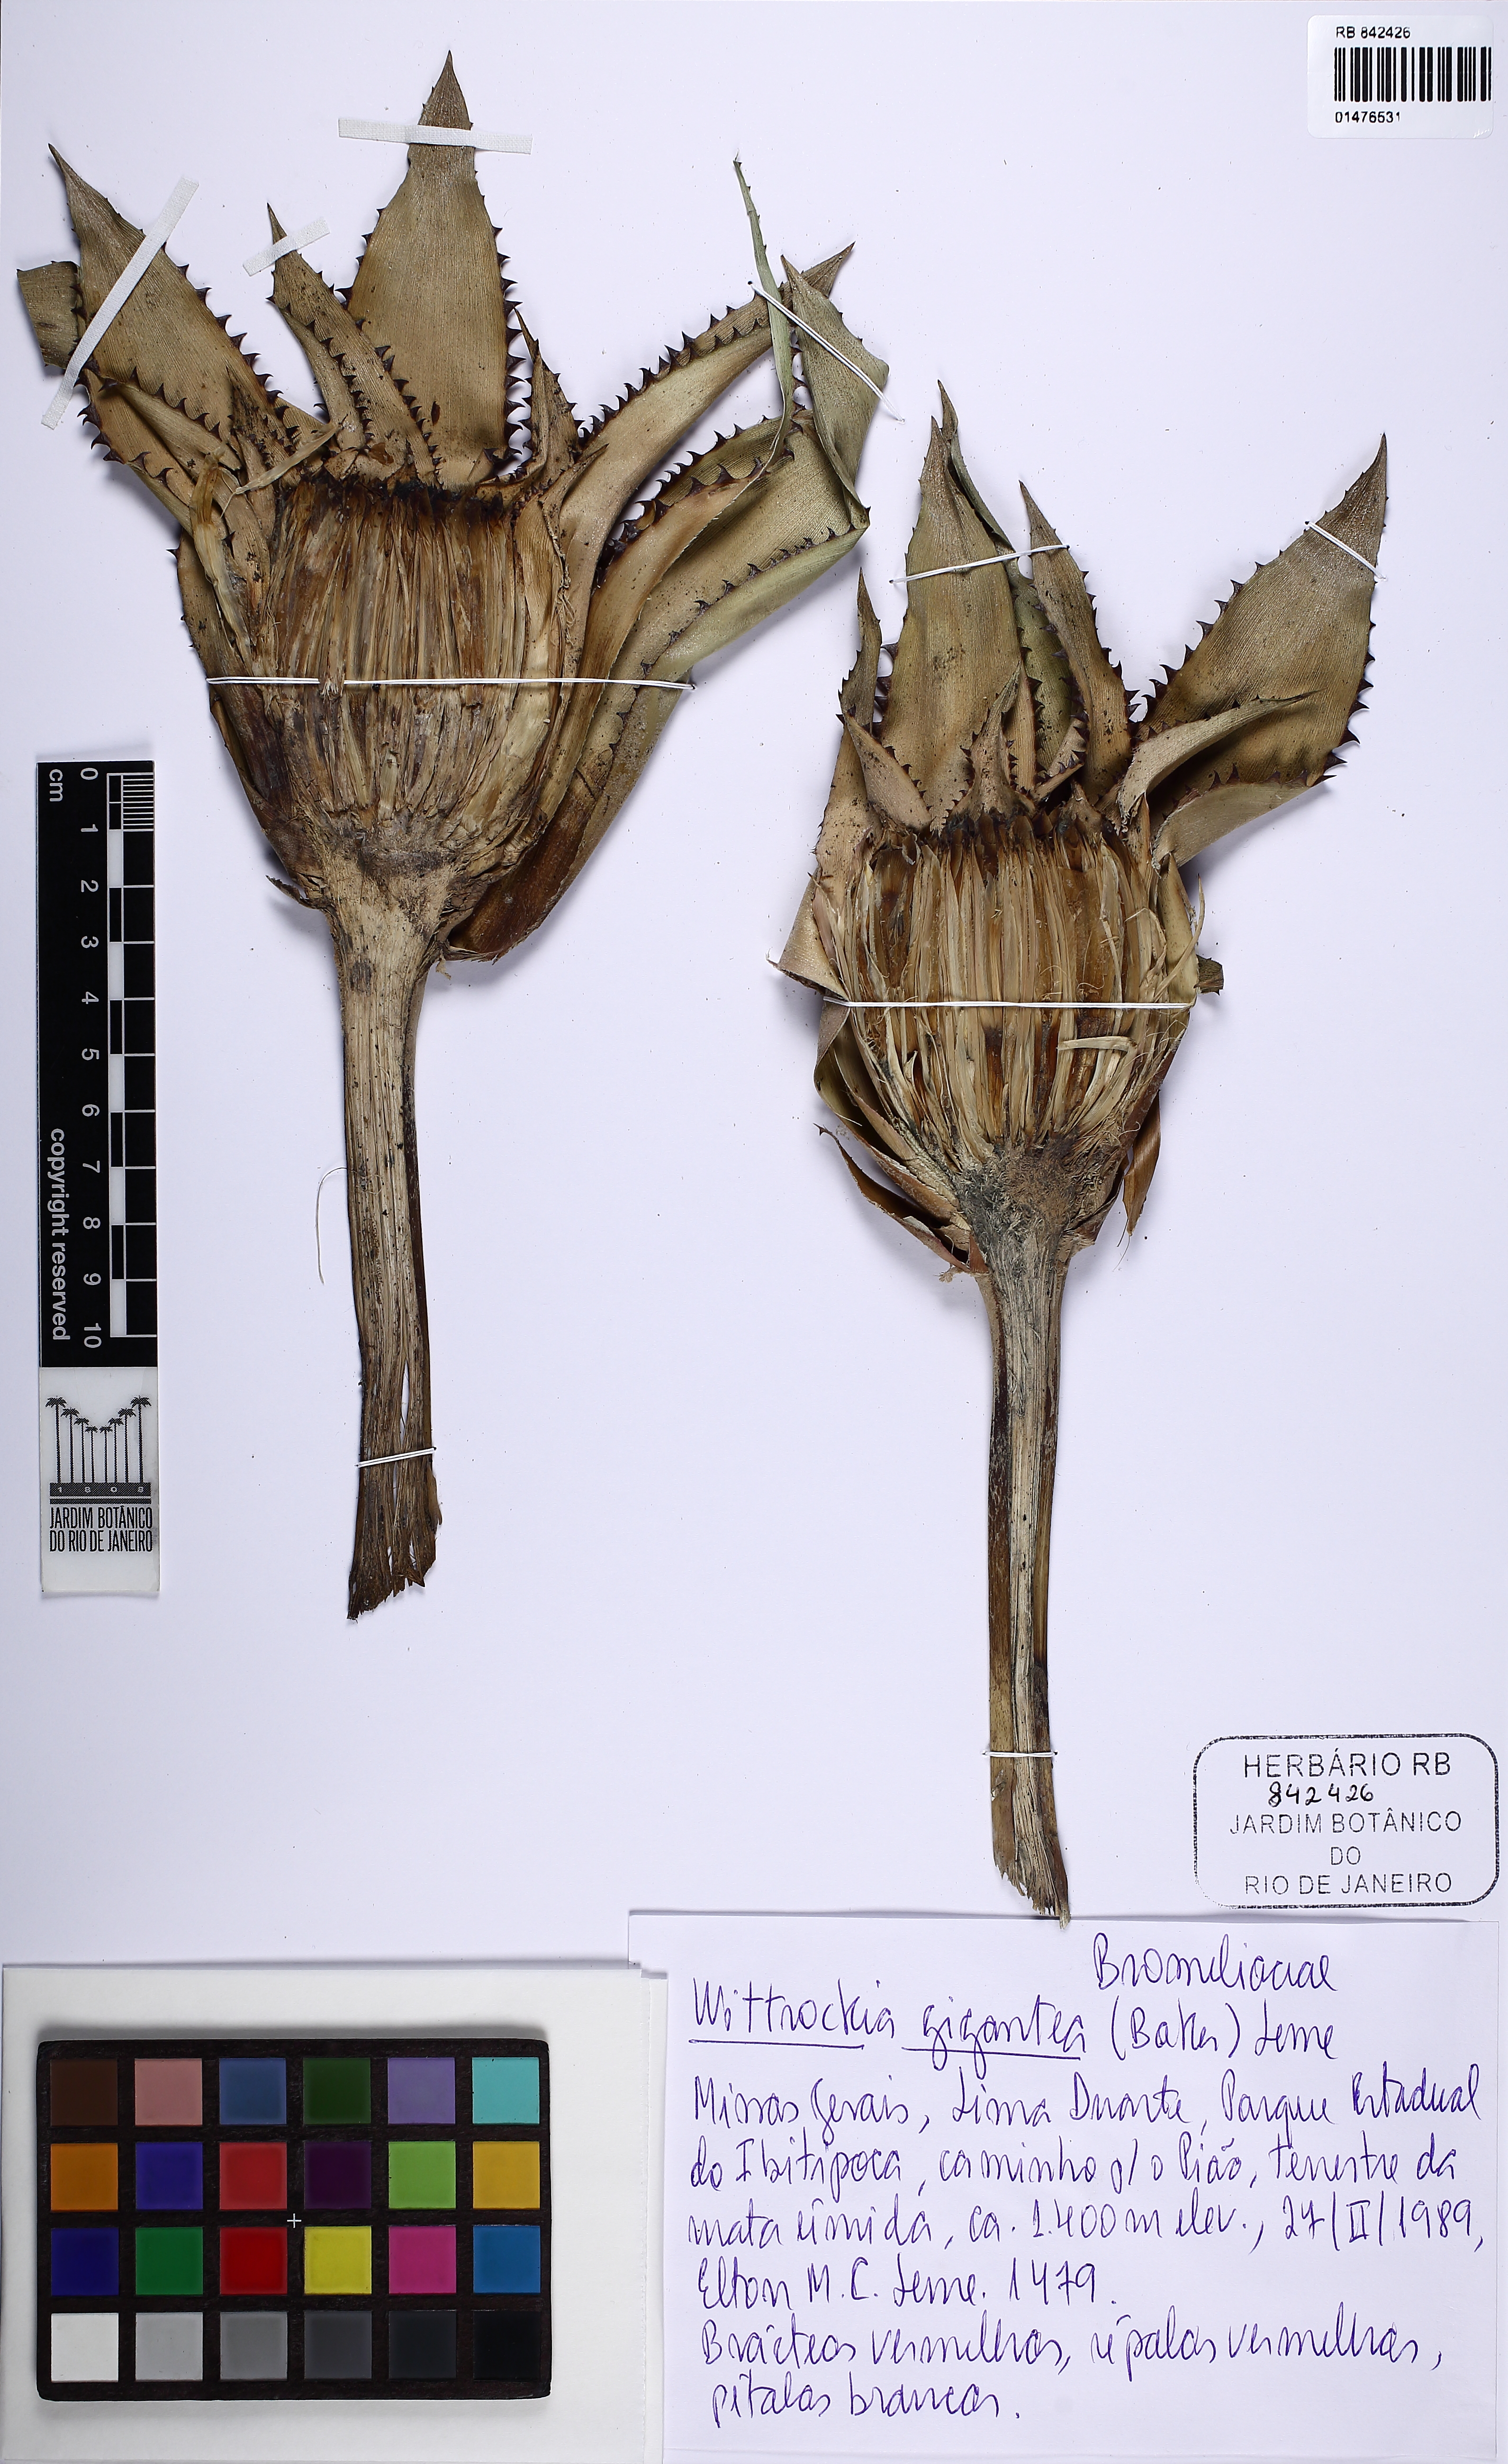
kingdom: Plantae
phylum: Tracheophyta
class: Liliopsida
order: Poales
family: Bromeliaceae
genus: Wittrockia
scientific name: Wittrockia gigantea
